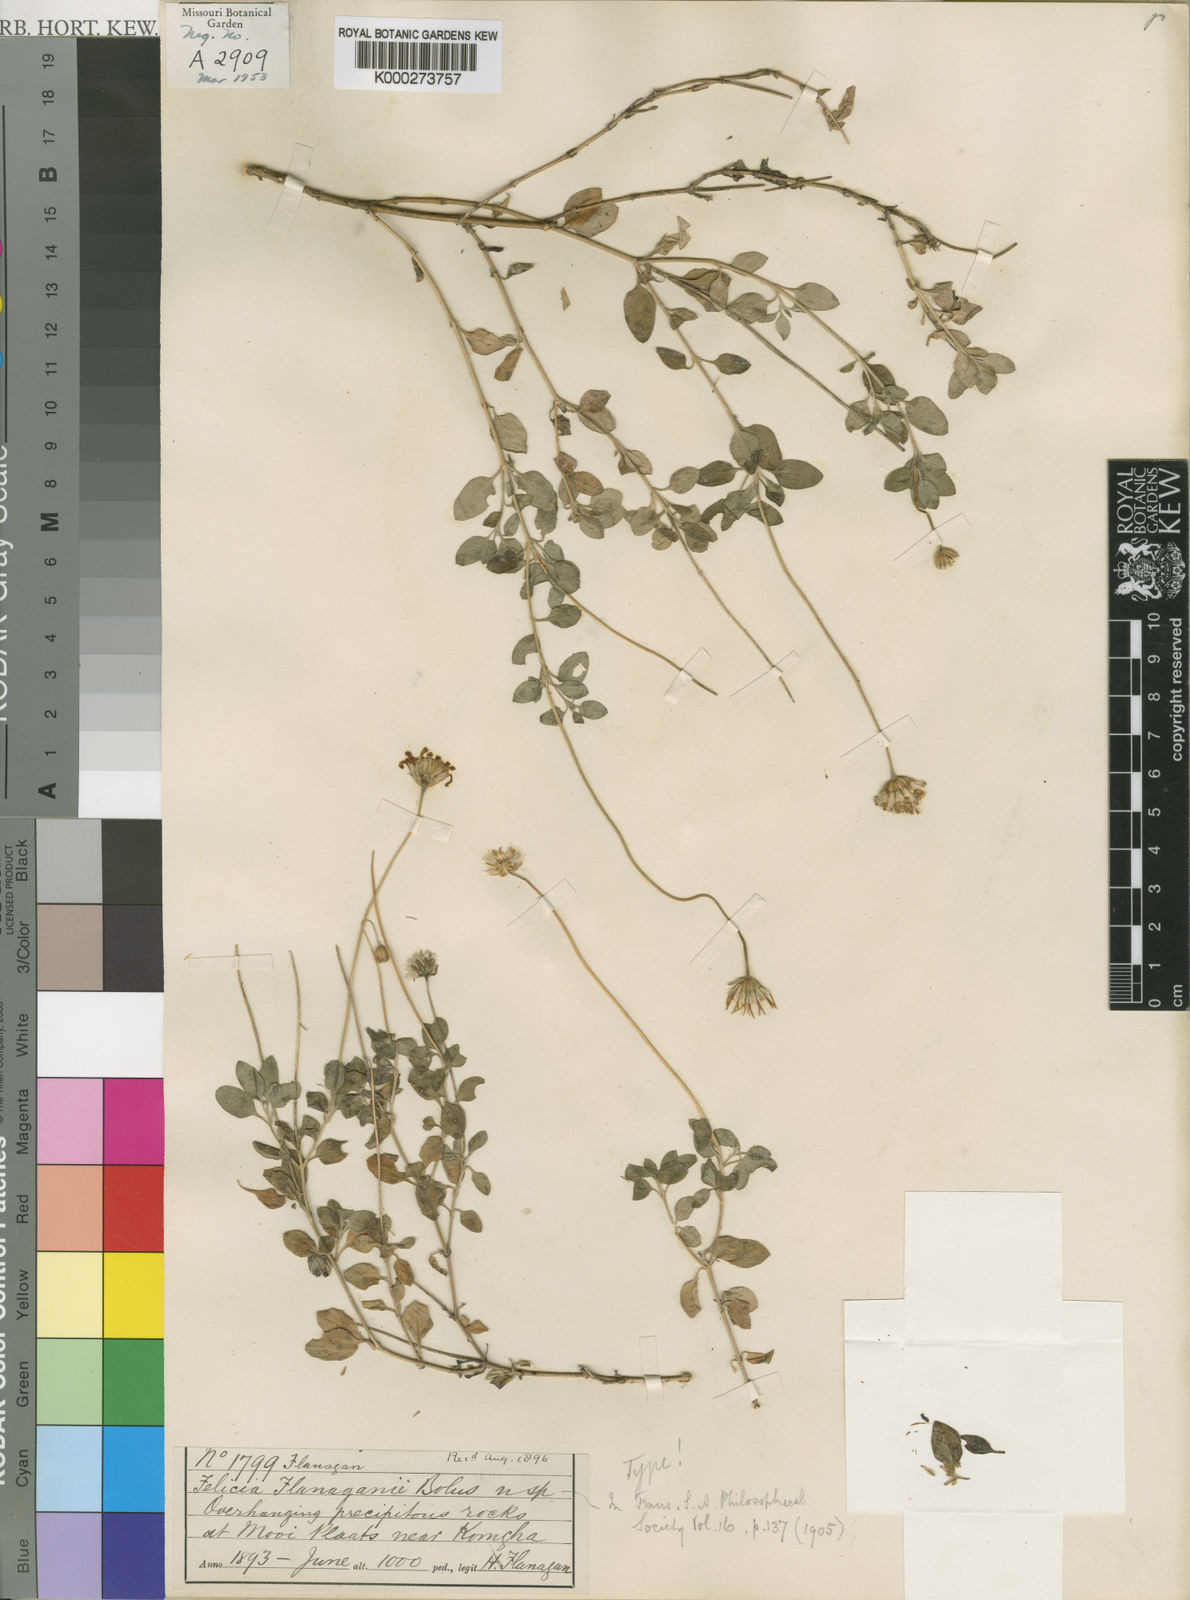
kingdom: Plantae
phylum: Tracheophyta
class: Magnoliopsida
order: Asterales
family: Asteraceae
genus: Felicia
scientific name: Felicia flanaganii
